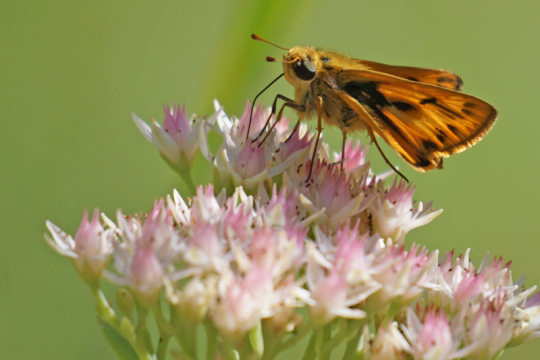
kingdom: Animalia
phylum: Arthropoda
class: Insecta
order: Lepidoptera
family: Hesperiidae
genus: Hylephila
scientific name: Hylephila phyleus
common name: Fiery Skipper
